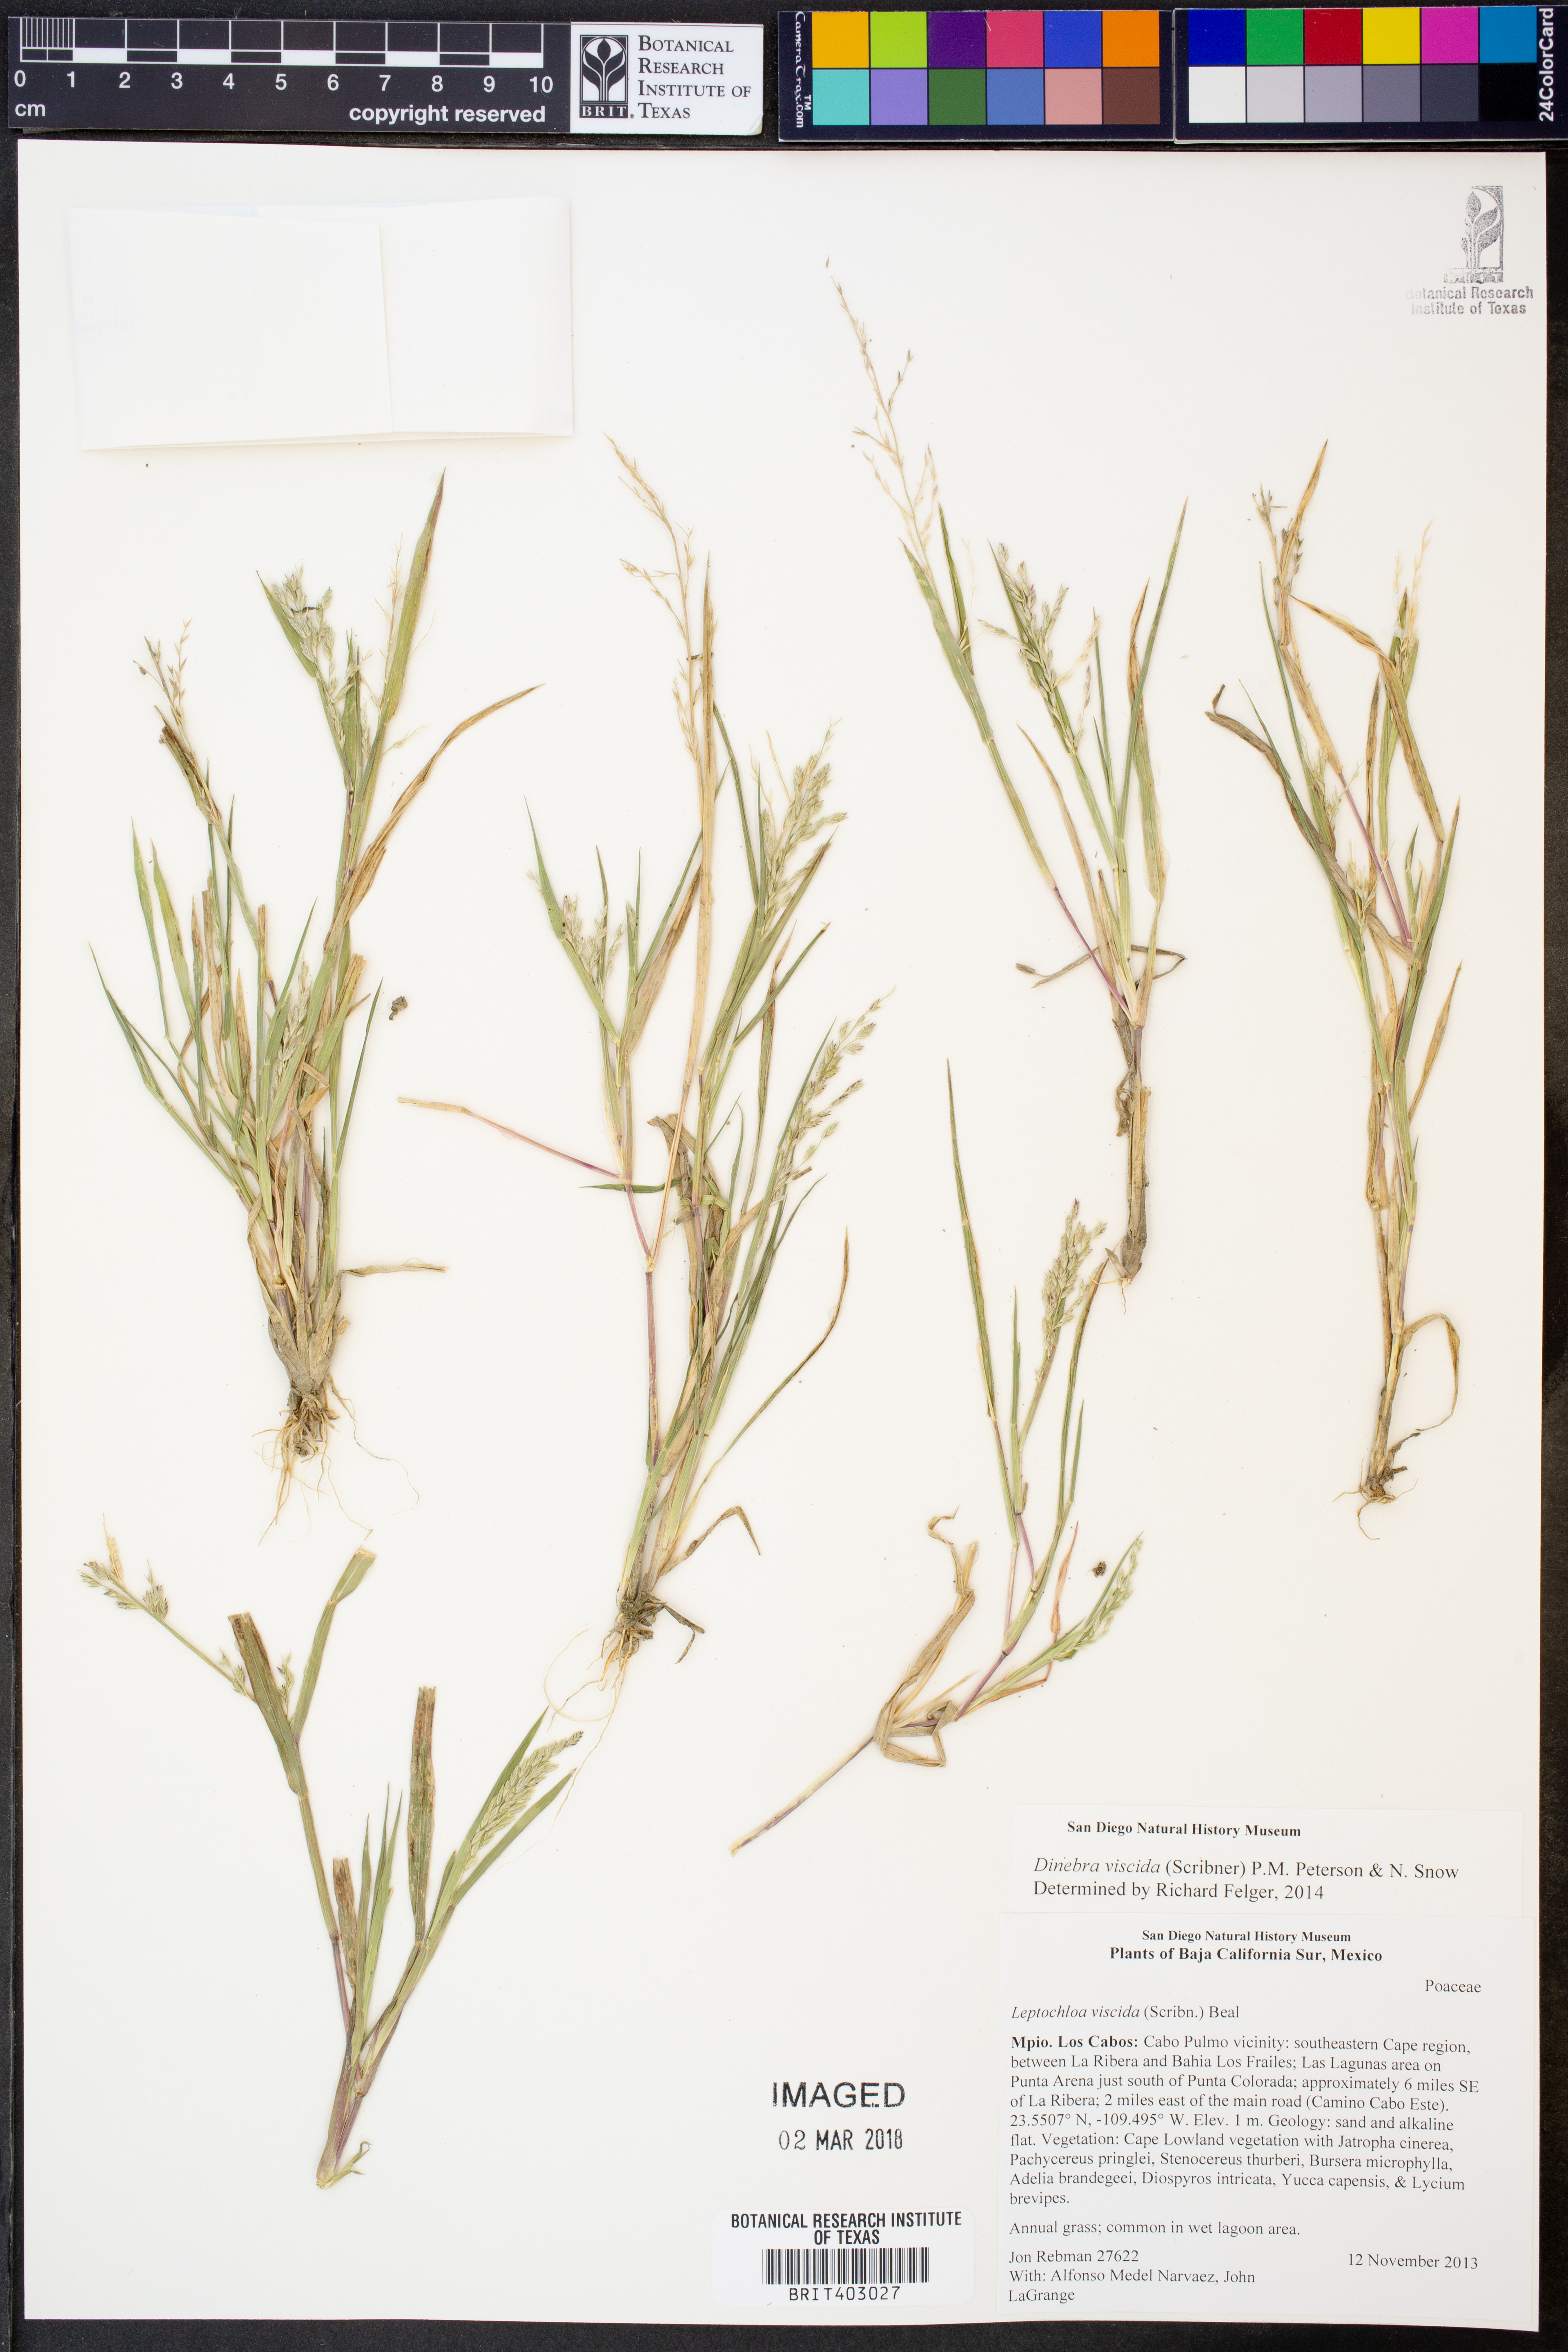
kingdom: Plantae
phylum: Tracheophyta
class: Liliopsida
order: Poales
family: Poaceae
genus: Leptochloa
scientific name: Leptochloa viscida
